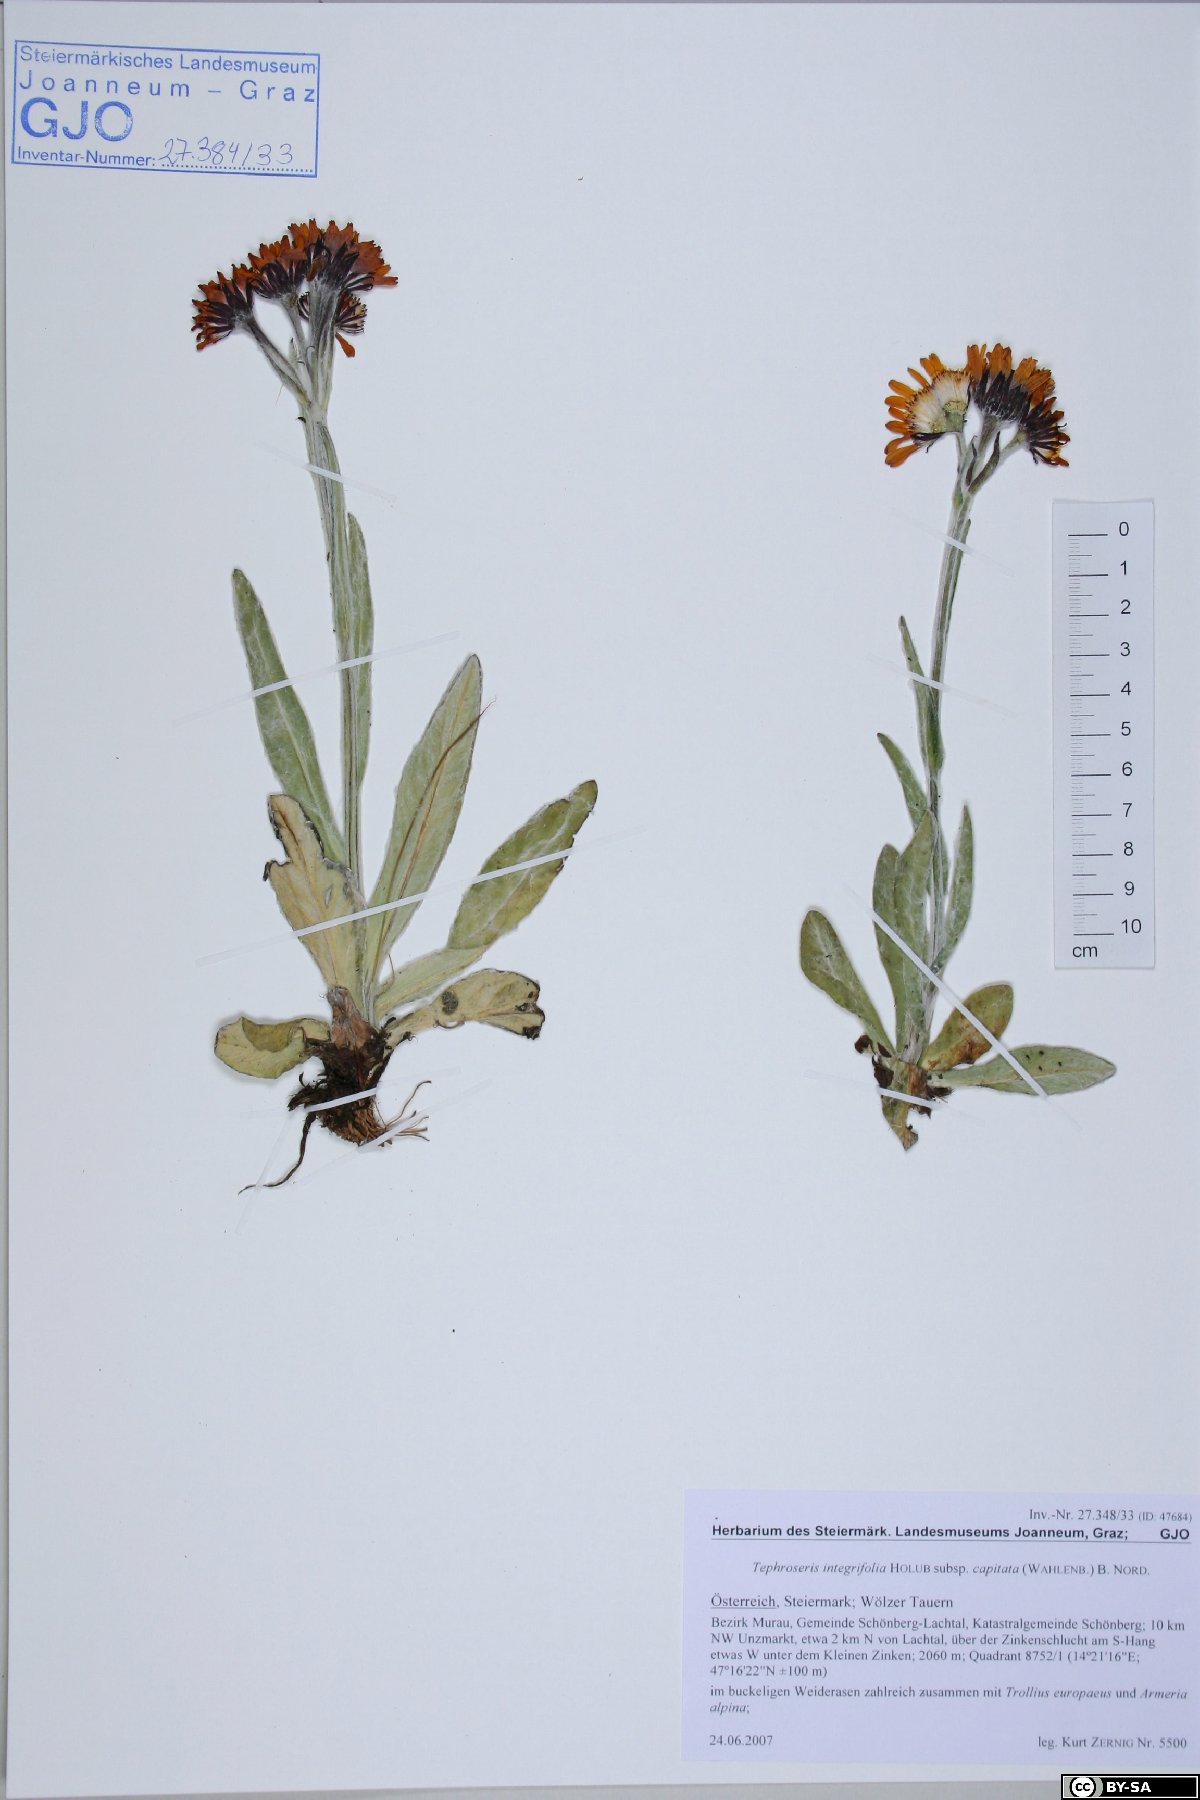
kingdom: Plantae
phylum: Tracheophyta
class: Magnoliopsida
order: Asterales
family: Asteraceae
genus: Tephroseris
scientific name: Tephroseris integrifolia
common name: Field fleawort
